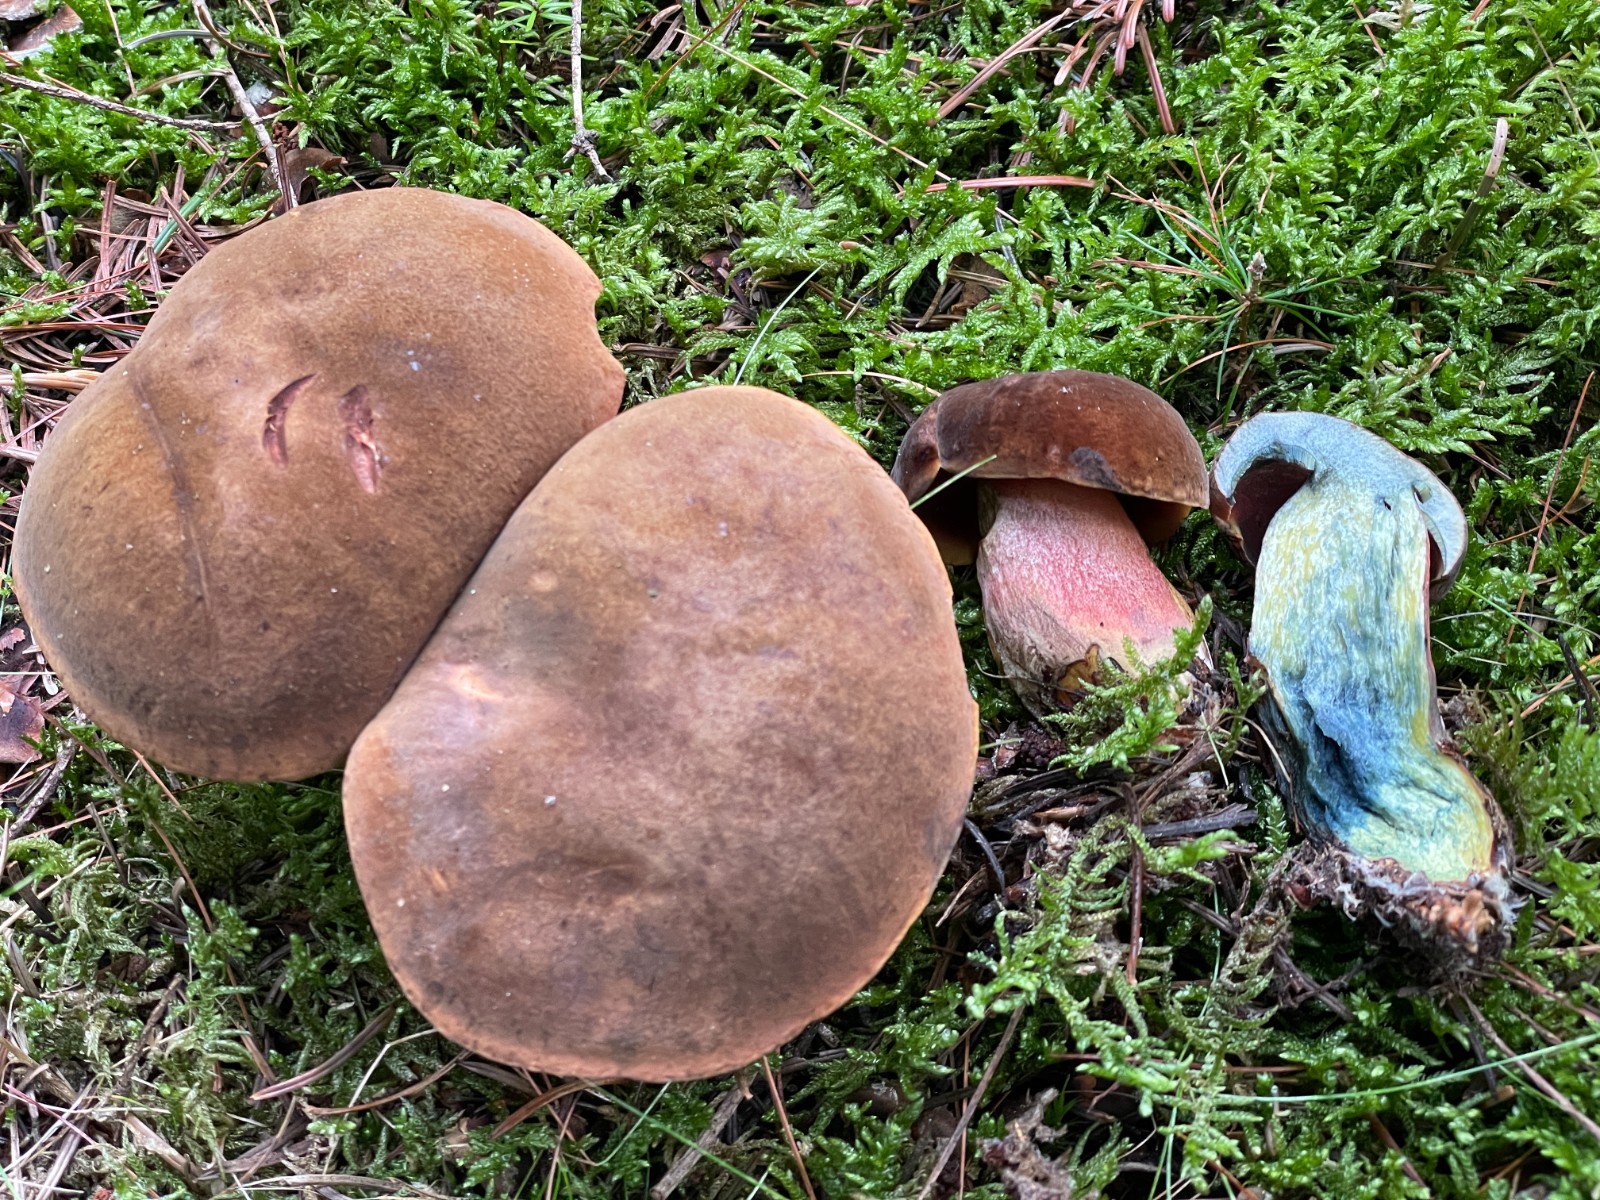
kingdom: Fungi
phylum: Basidiomycota
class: Agaricomycetes
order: Boletales
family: Boletaceae
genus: Neoboletus
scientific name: Neoboletus erythropus
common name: punktstokket indigorørhat
